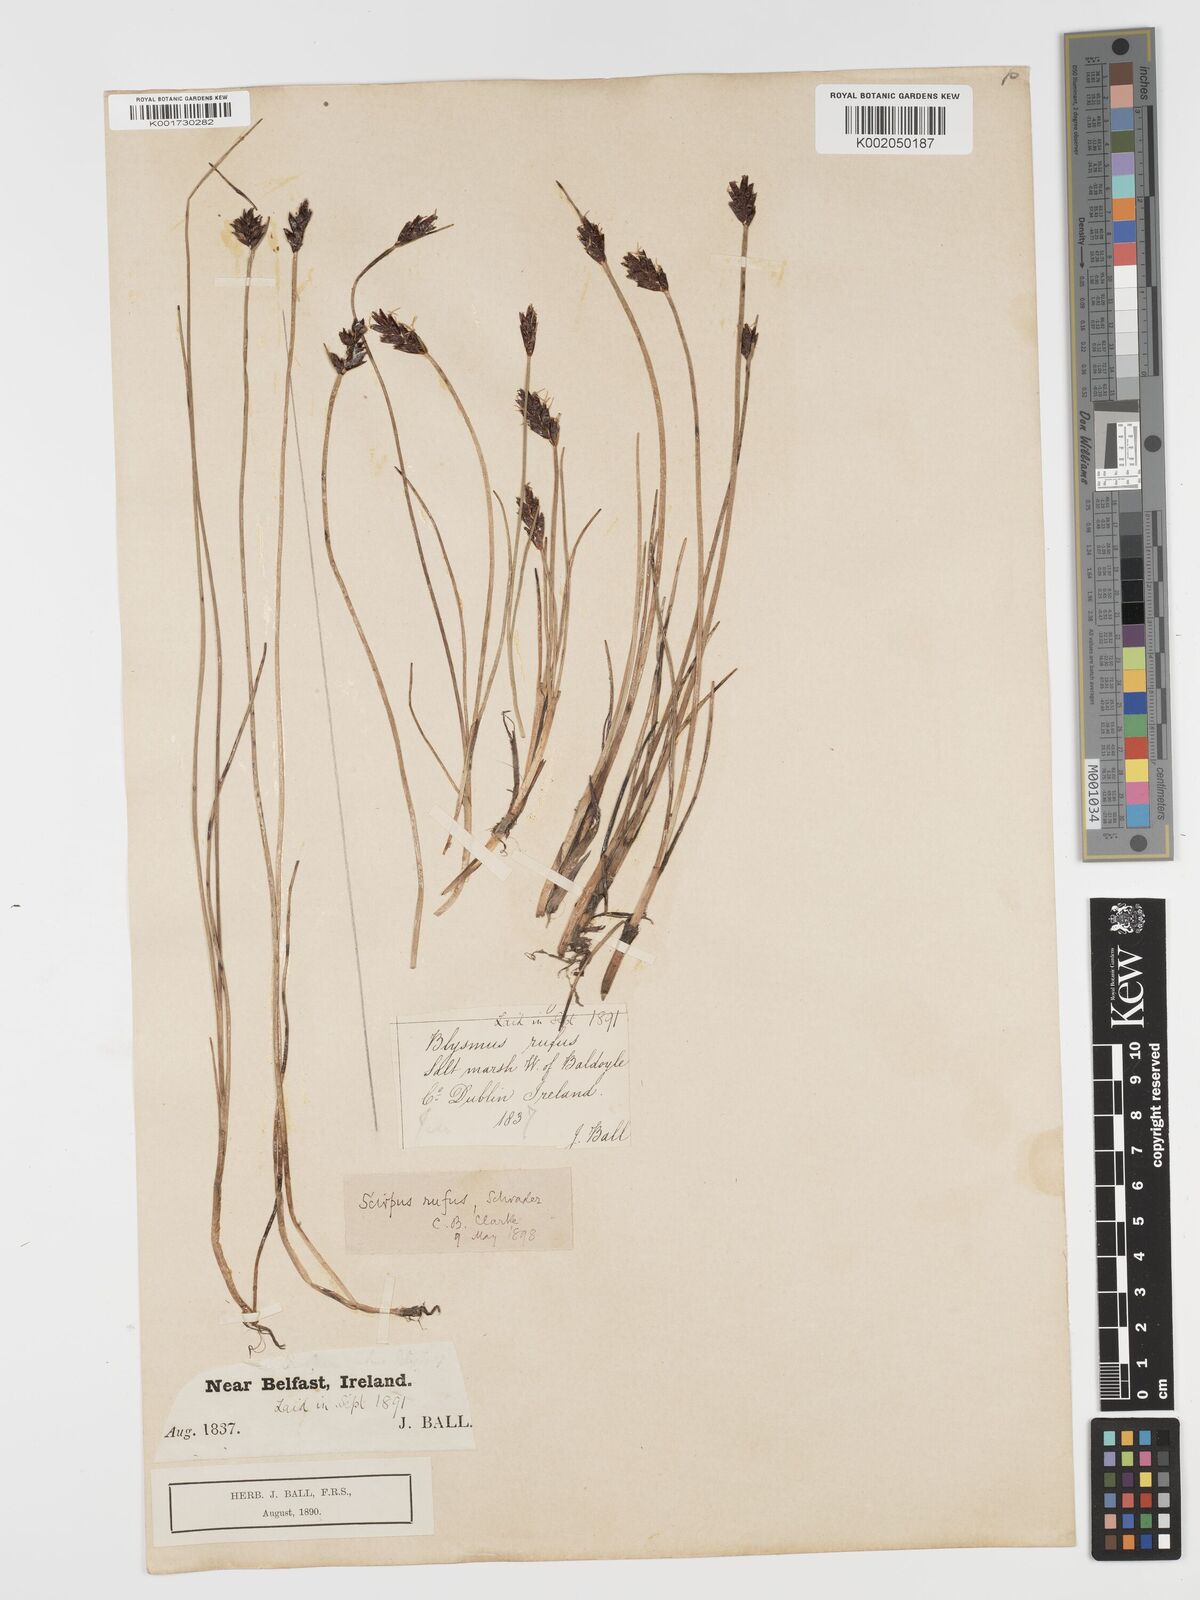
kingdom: Plantae
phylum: Tracheophyta
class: Liliopsida
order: Poales
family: Cyperaceae
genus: Blysmus
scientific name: Blysmus rufus
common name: Saltmarsh flat-sedge
